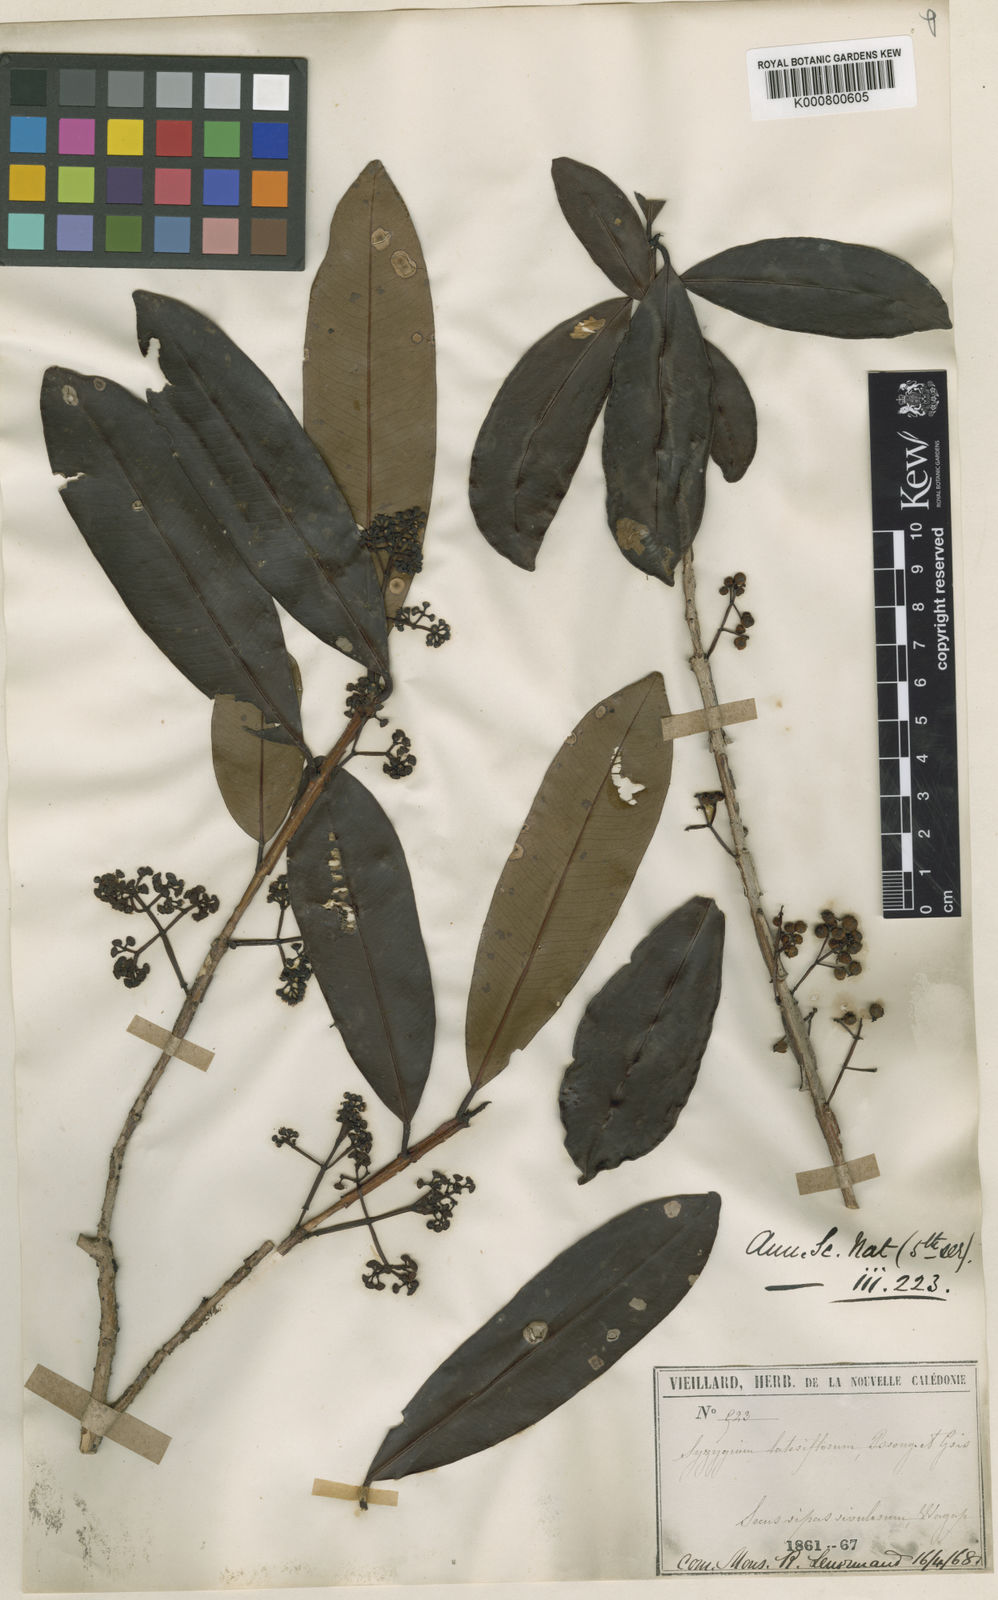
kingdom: Plantae
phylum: Tracheophyta
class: Magnoliopsida
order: Myrtales
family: Myrtaceae
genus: Syzygium
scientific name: Syzygium
